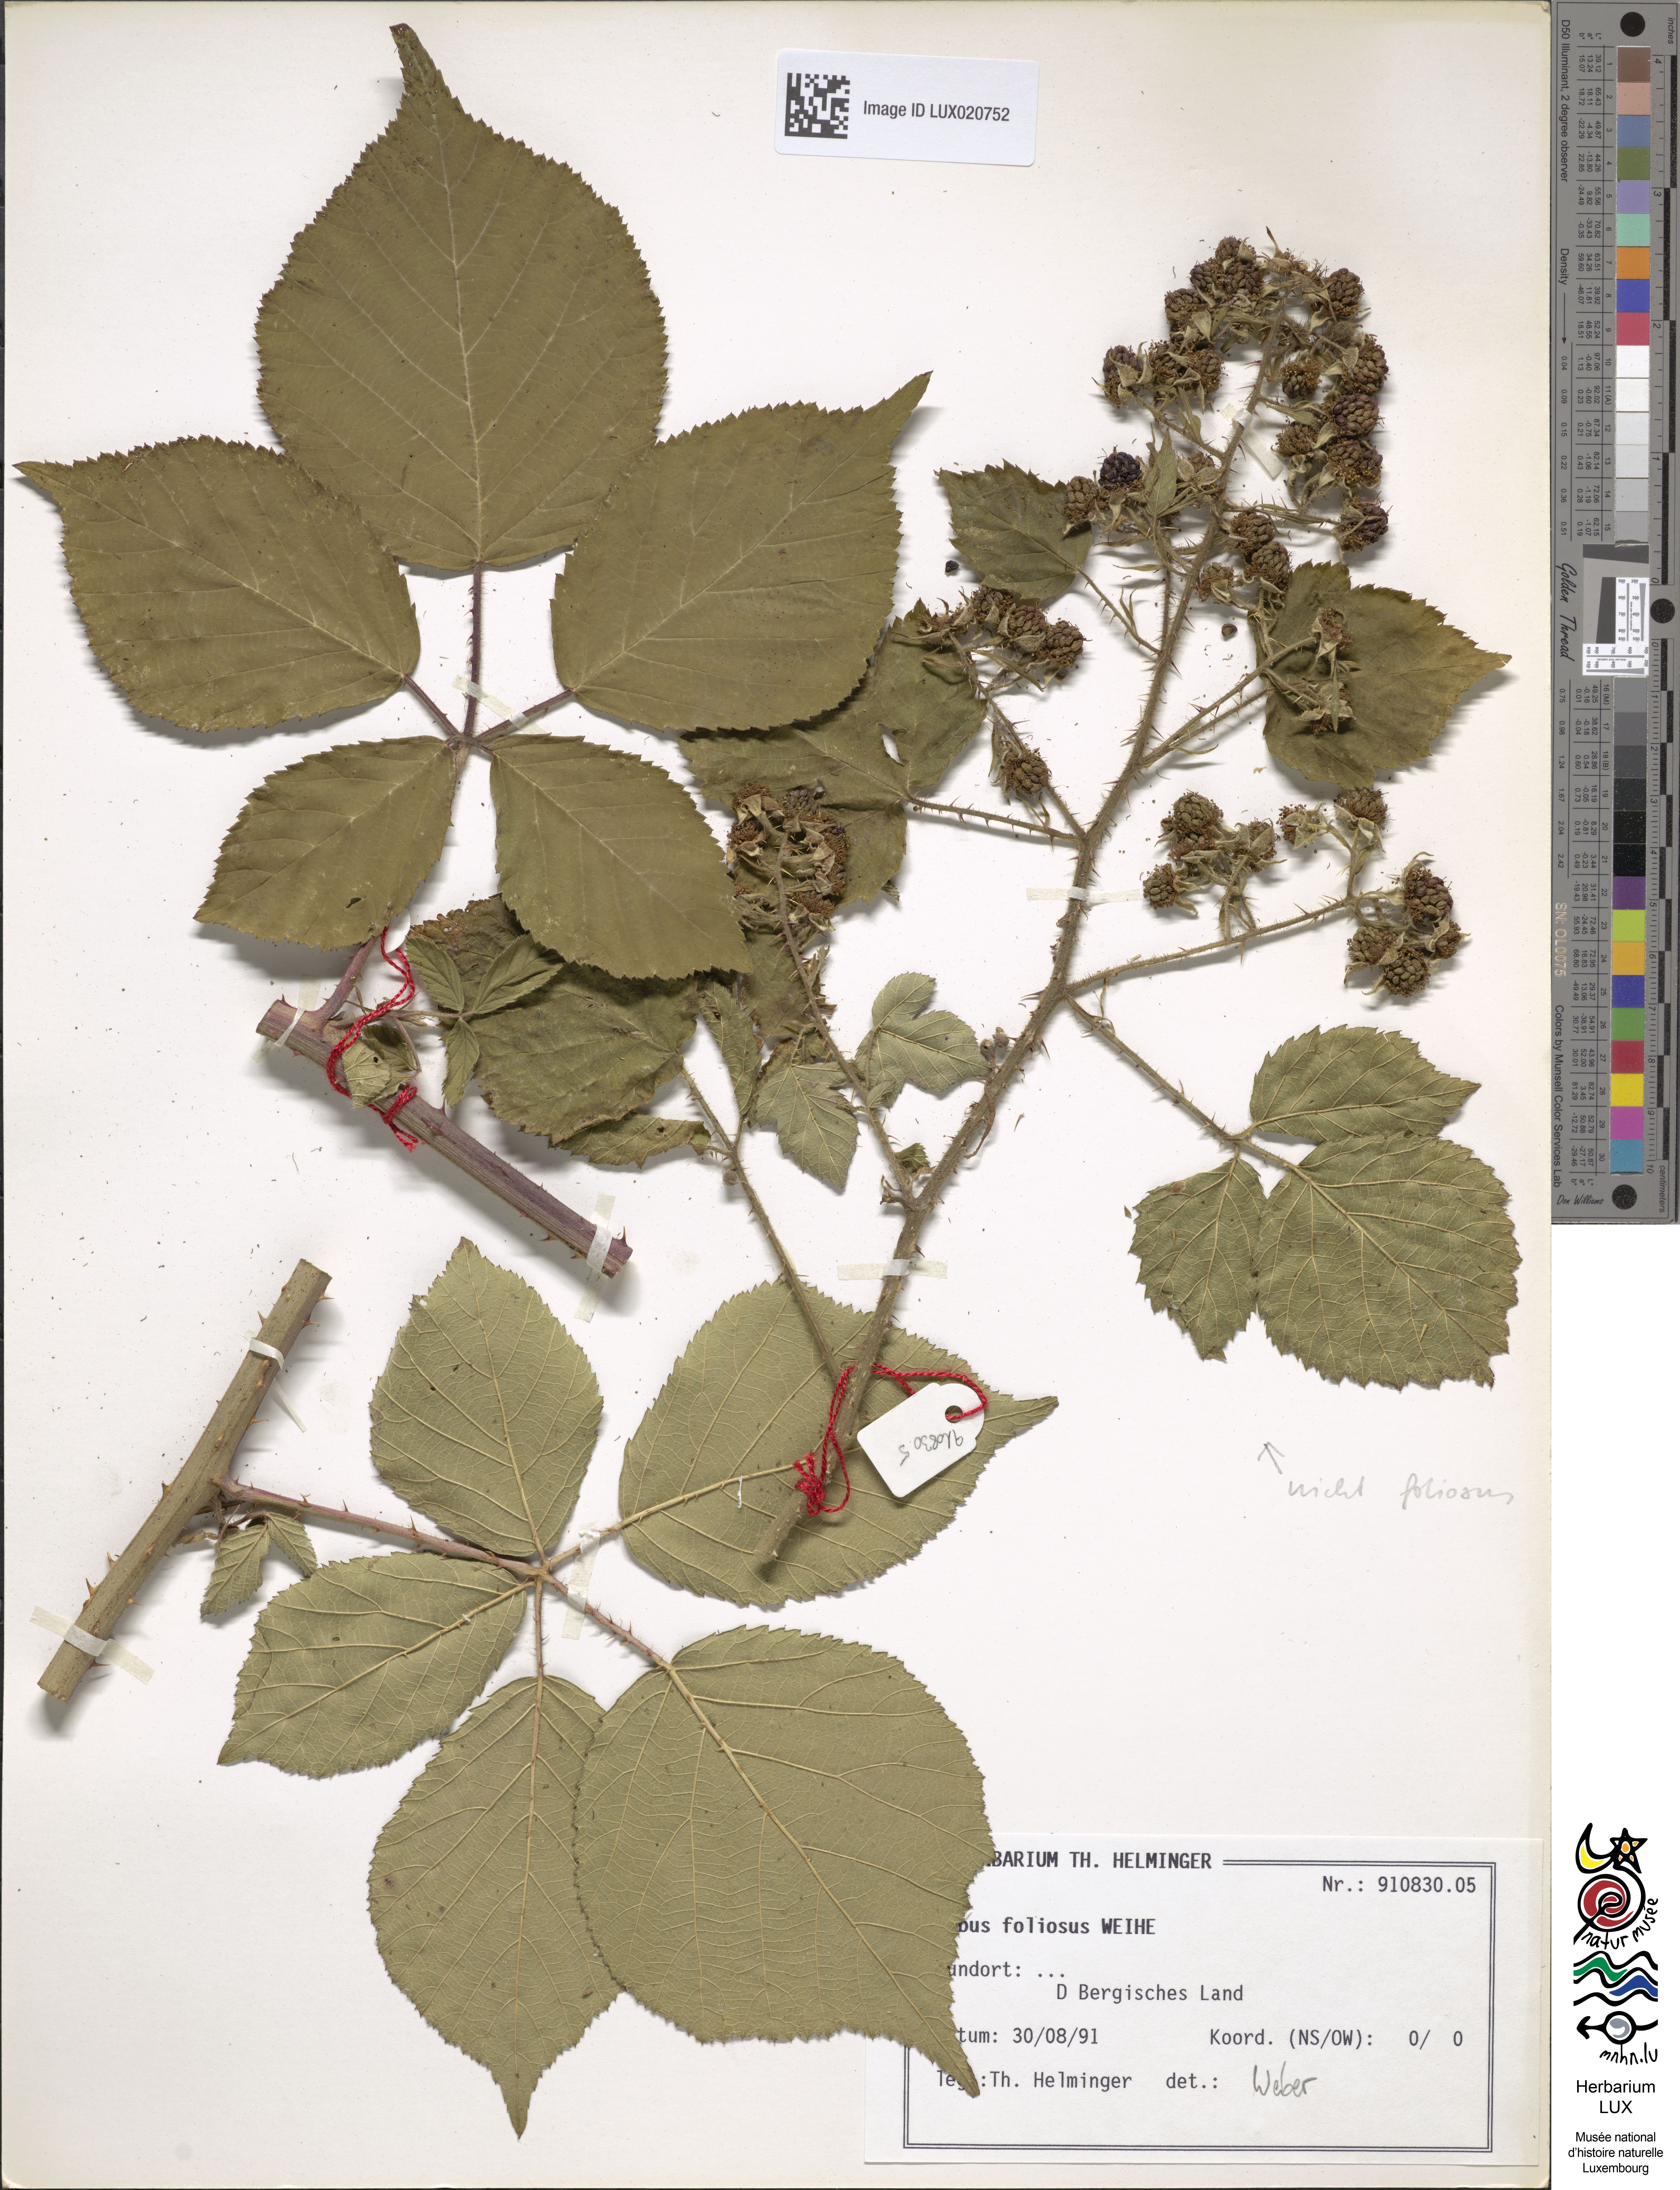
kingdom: Plantae
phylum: Tracheophyta
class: Magnoliopsida
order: Rosales
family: Rosaceae
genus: Rubus
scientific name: Rubus foliosus
